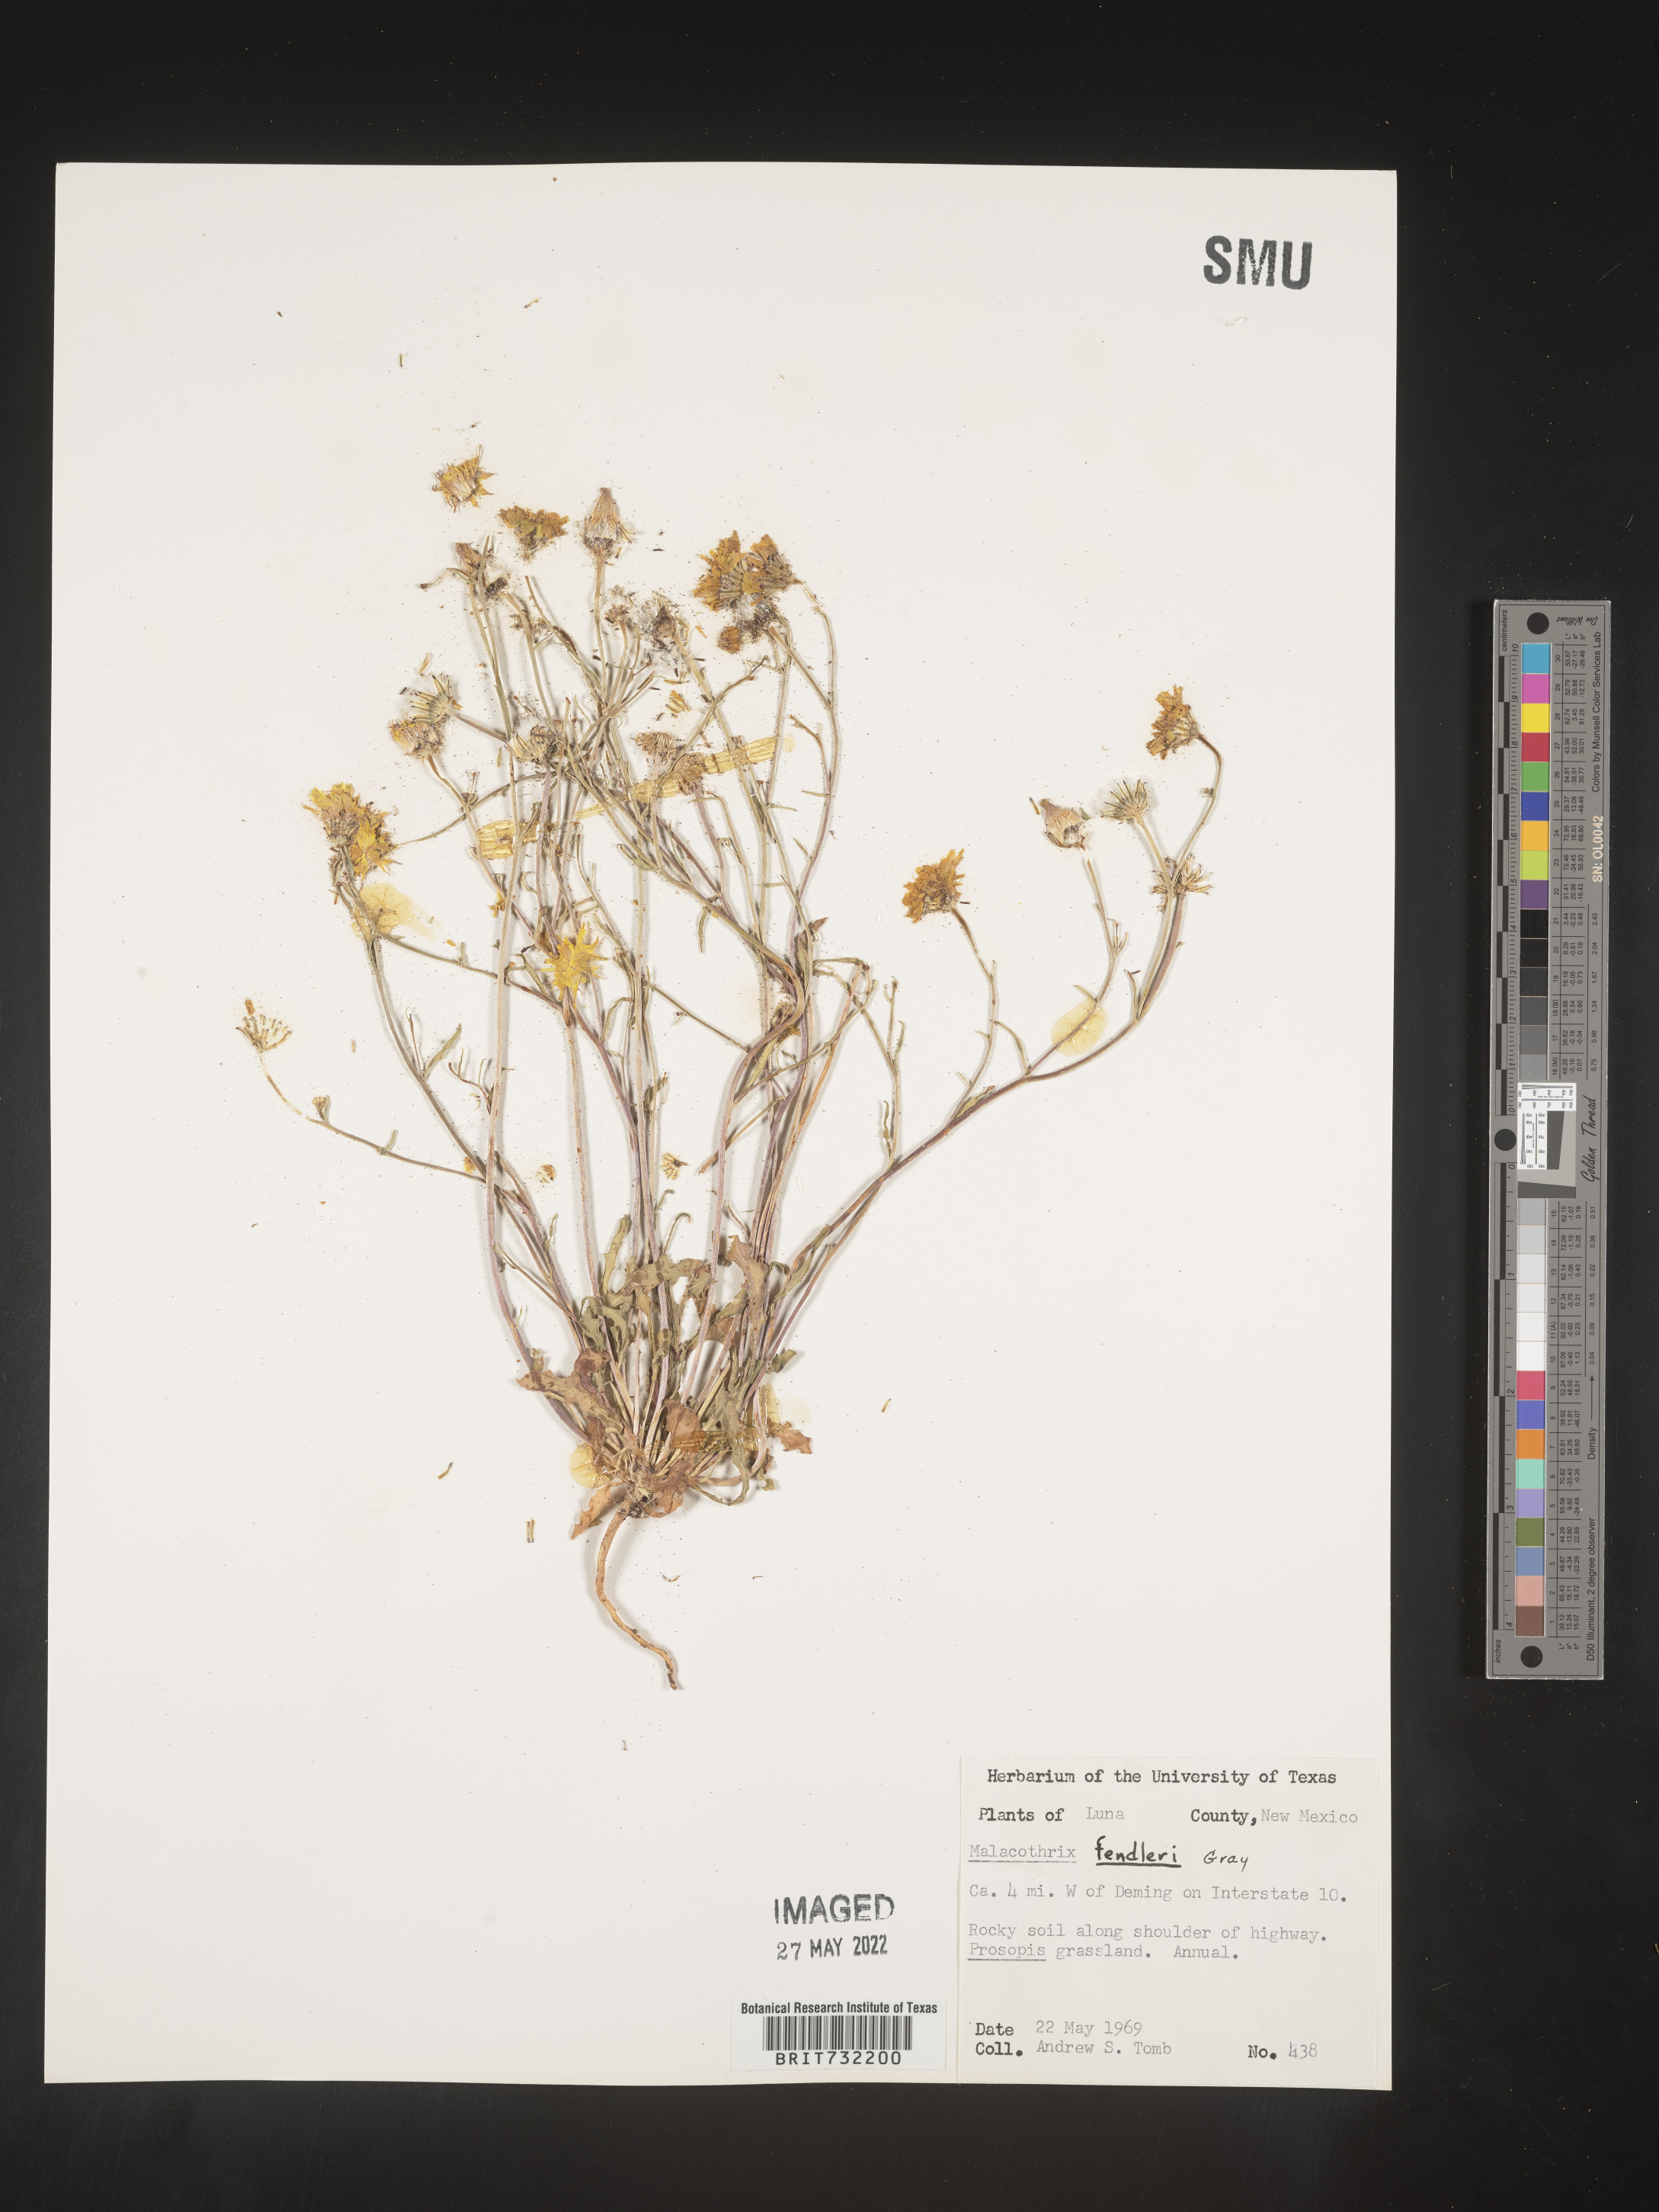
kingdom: Plantae
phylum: Tracheophyta
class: Magnoliopsida
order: Asterales
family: Asteraceae
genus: Malacothrix
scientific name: Malacothrix
